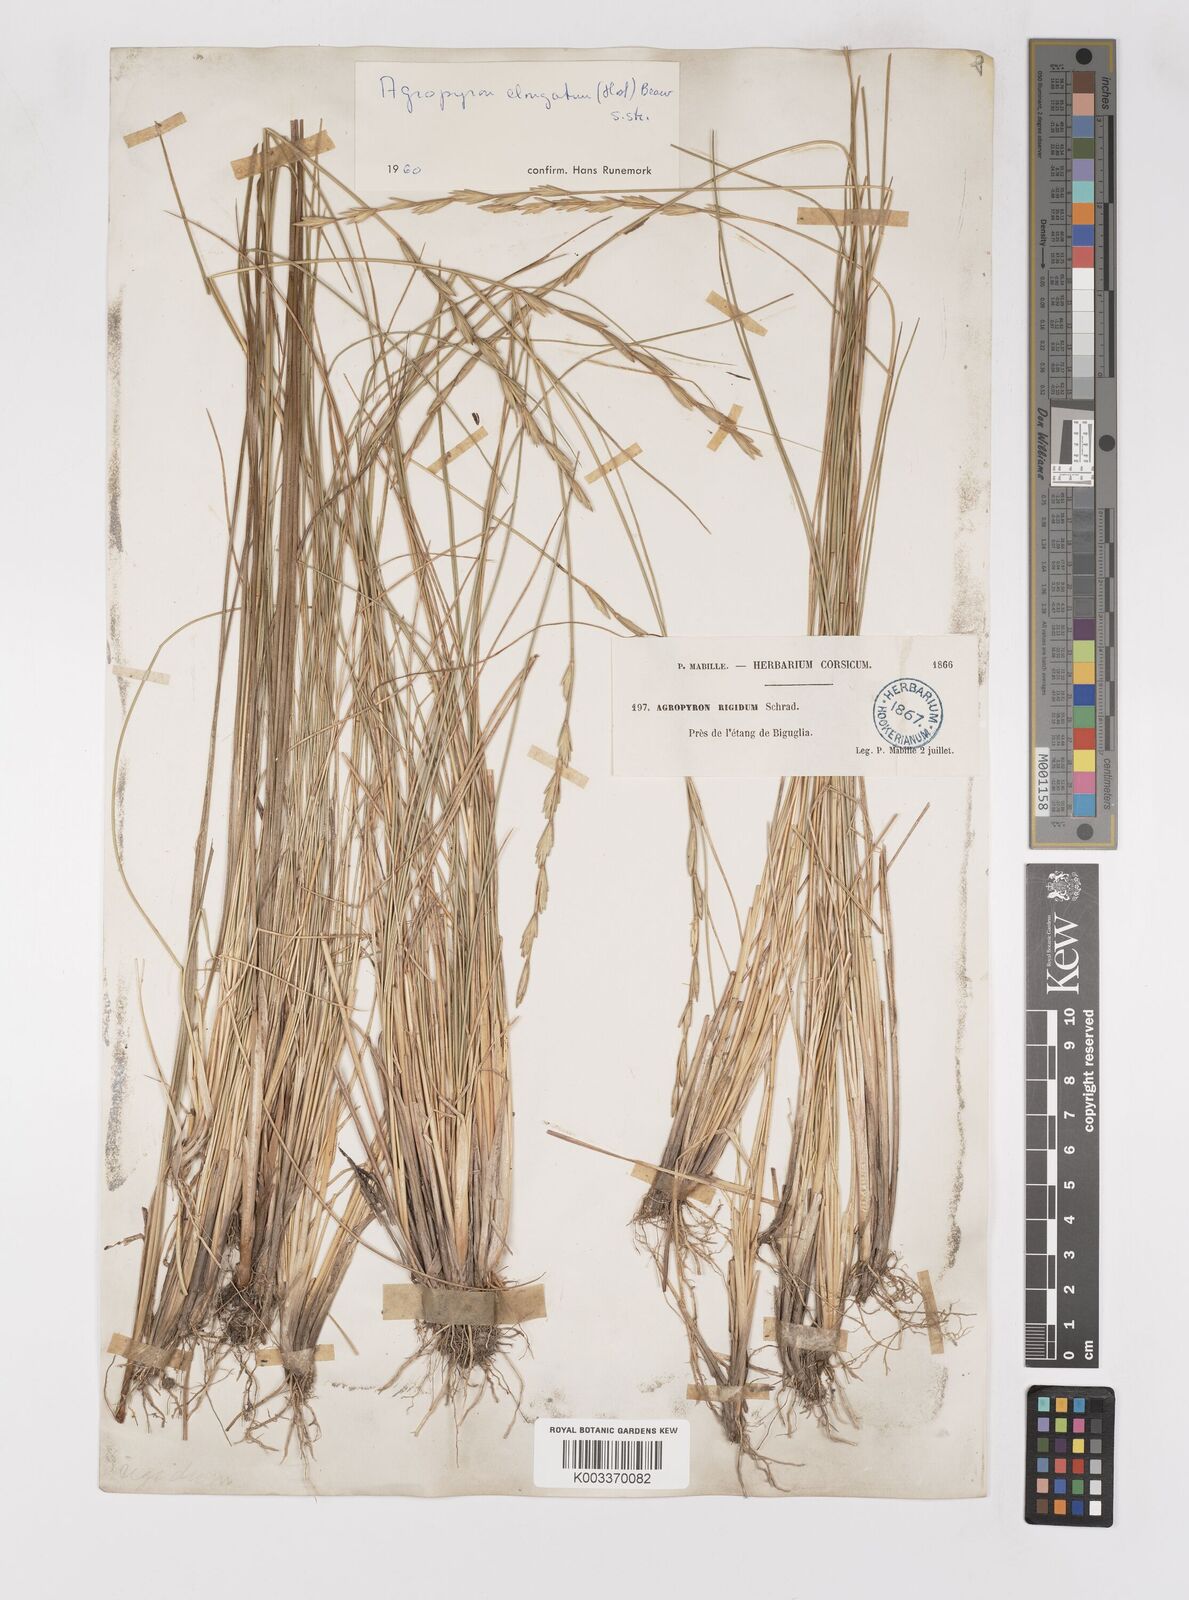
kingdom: Plantae
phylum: Tracheophyta
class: Liliopsida
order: Poales
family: Poaceae
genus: Thinopyrum
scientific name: Thinopyrum elongatum
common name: Tall wheatgrass
